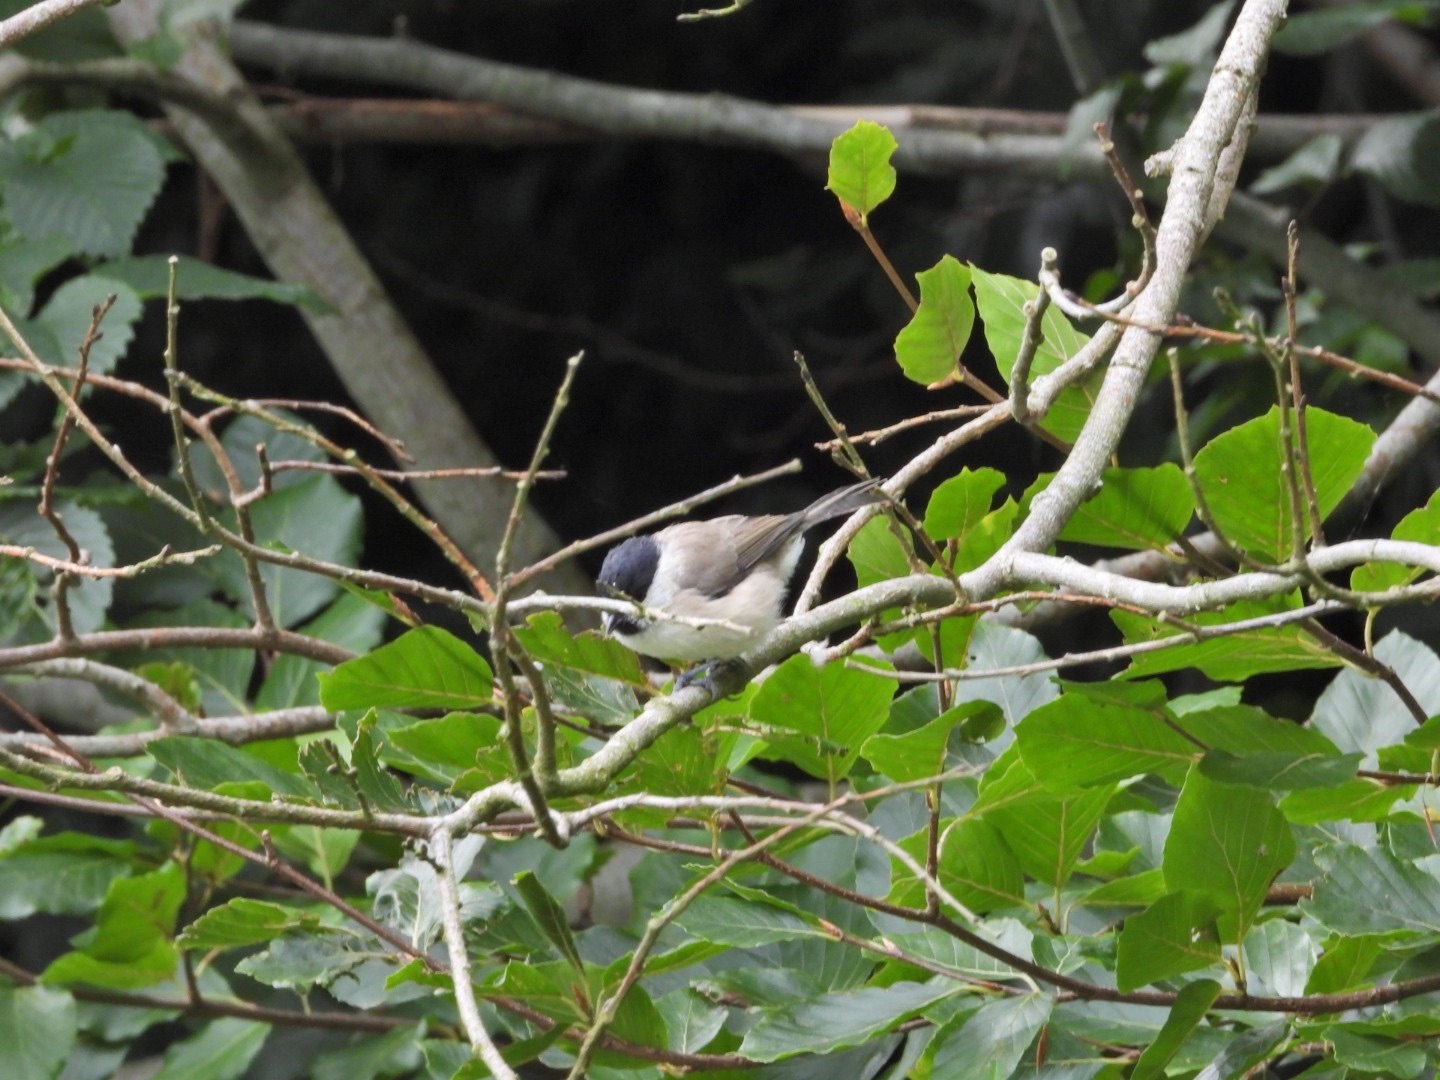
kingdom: Animalia
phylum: Chordata
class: Aves
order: Passeriformes
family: Paridae
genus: Poecile
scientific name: Poecile palustris
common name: Sumpmejse
